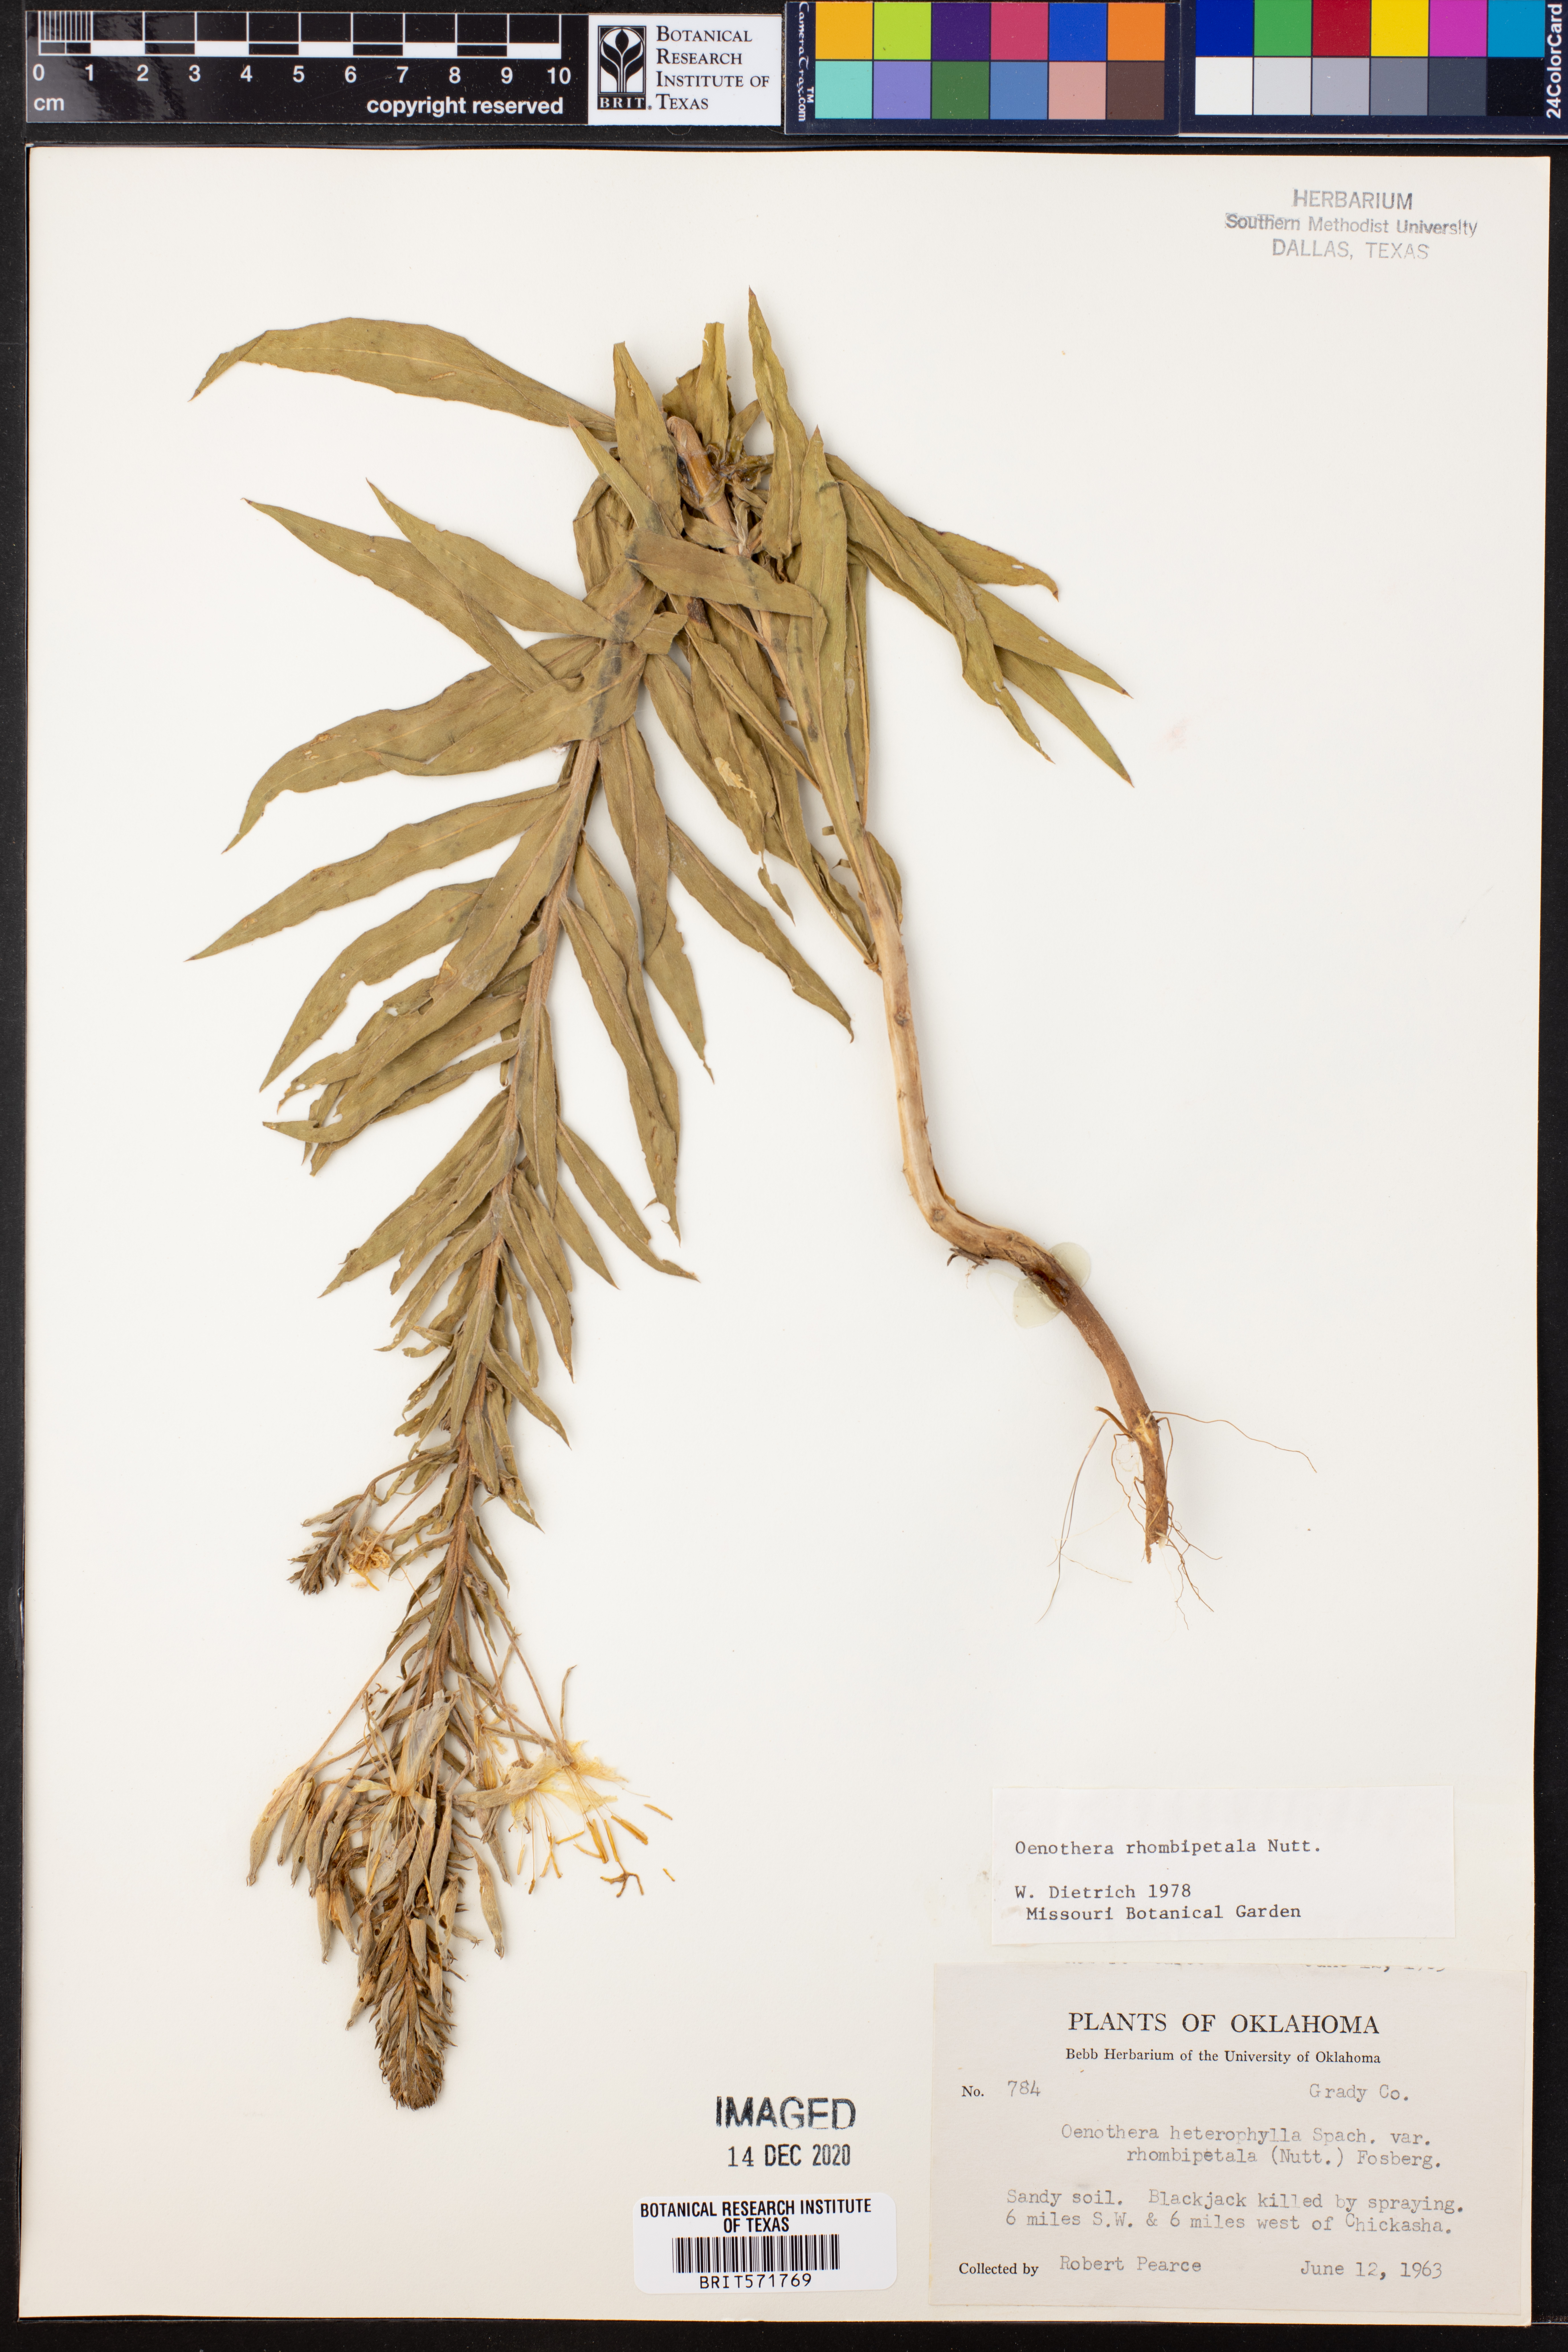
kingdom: Plantae
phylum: Tracheophyta
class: Magnoliopsida
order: Myrtales
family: Onagraceae
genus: Oenothera
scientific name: Oenothera rhombipetala
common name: Four-points evening-primrose
